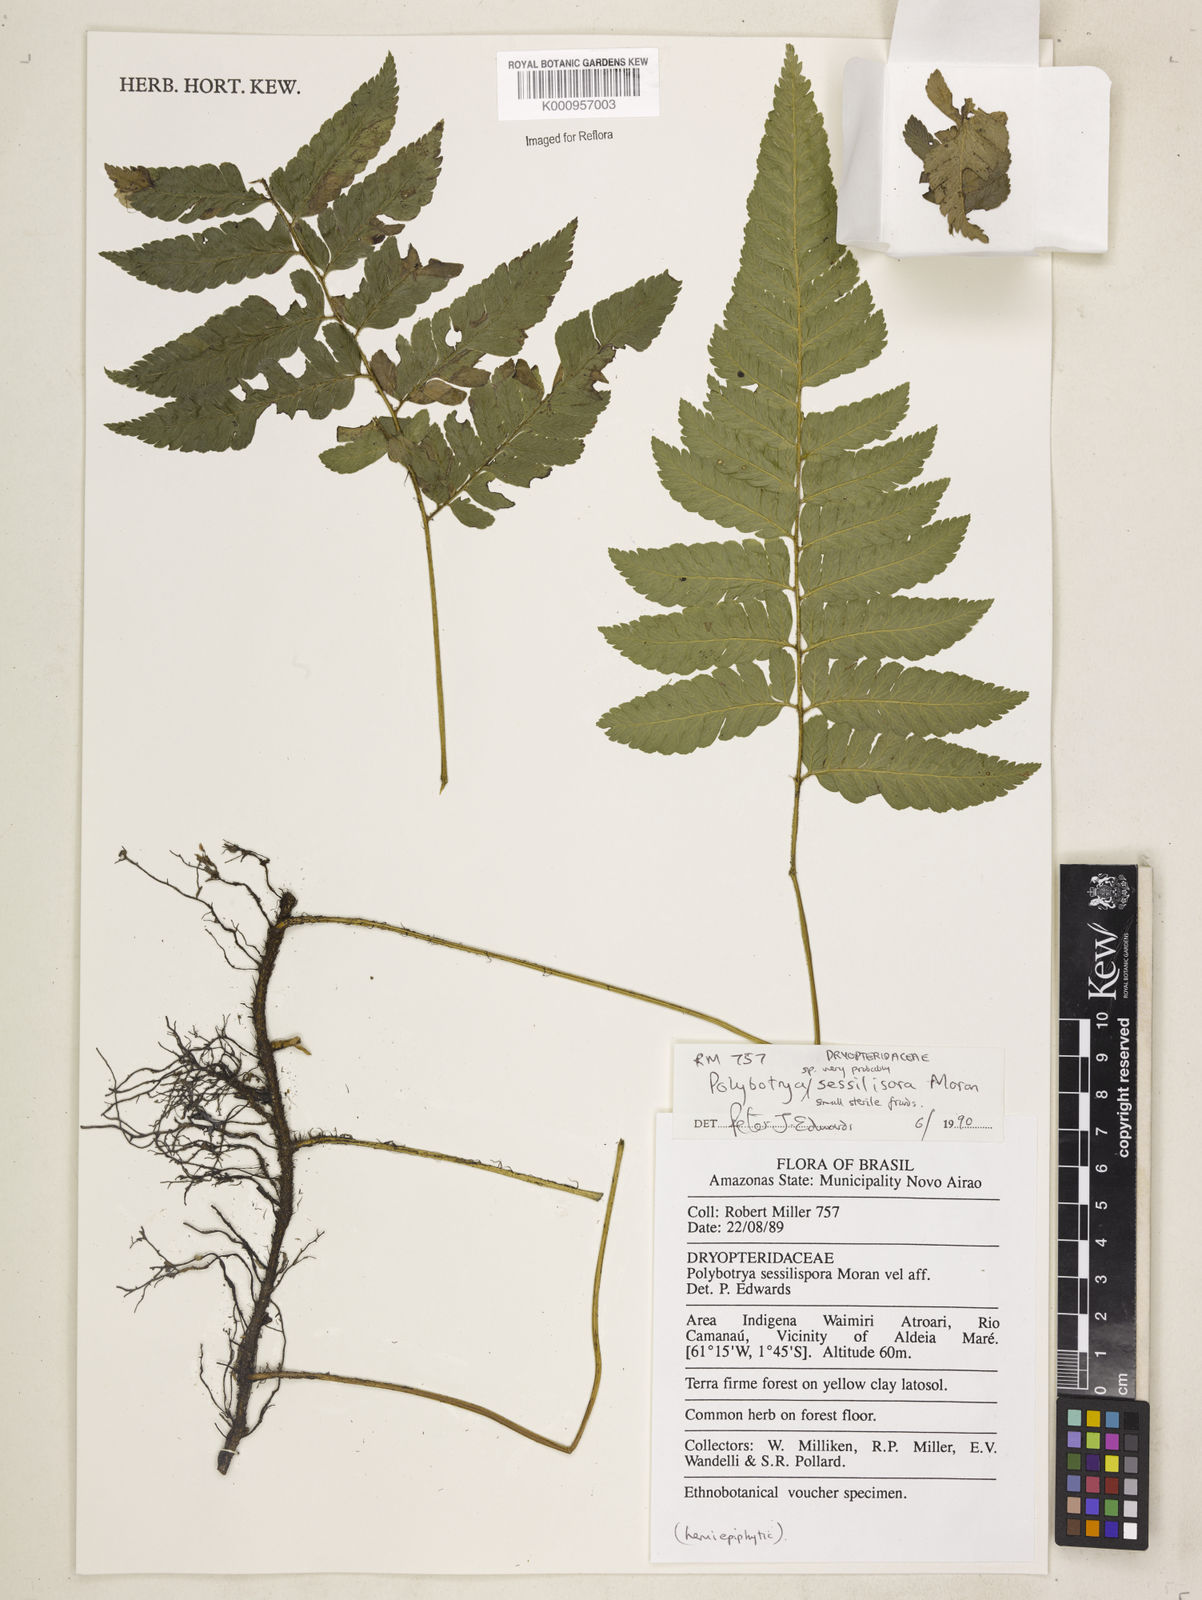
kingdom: Plantae
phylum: Tracheophyta
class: Polypodiopsida
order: Polypodiales
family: Dryopteridaceae
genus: Polybotrya
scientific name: Polybotrya sessilisora
